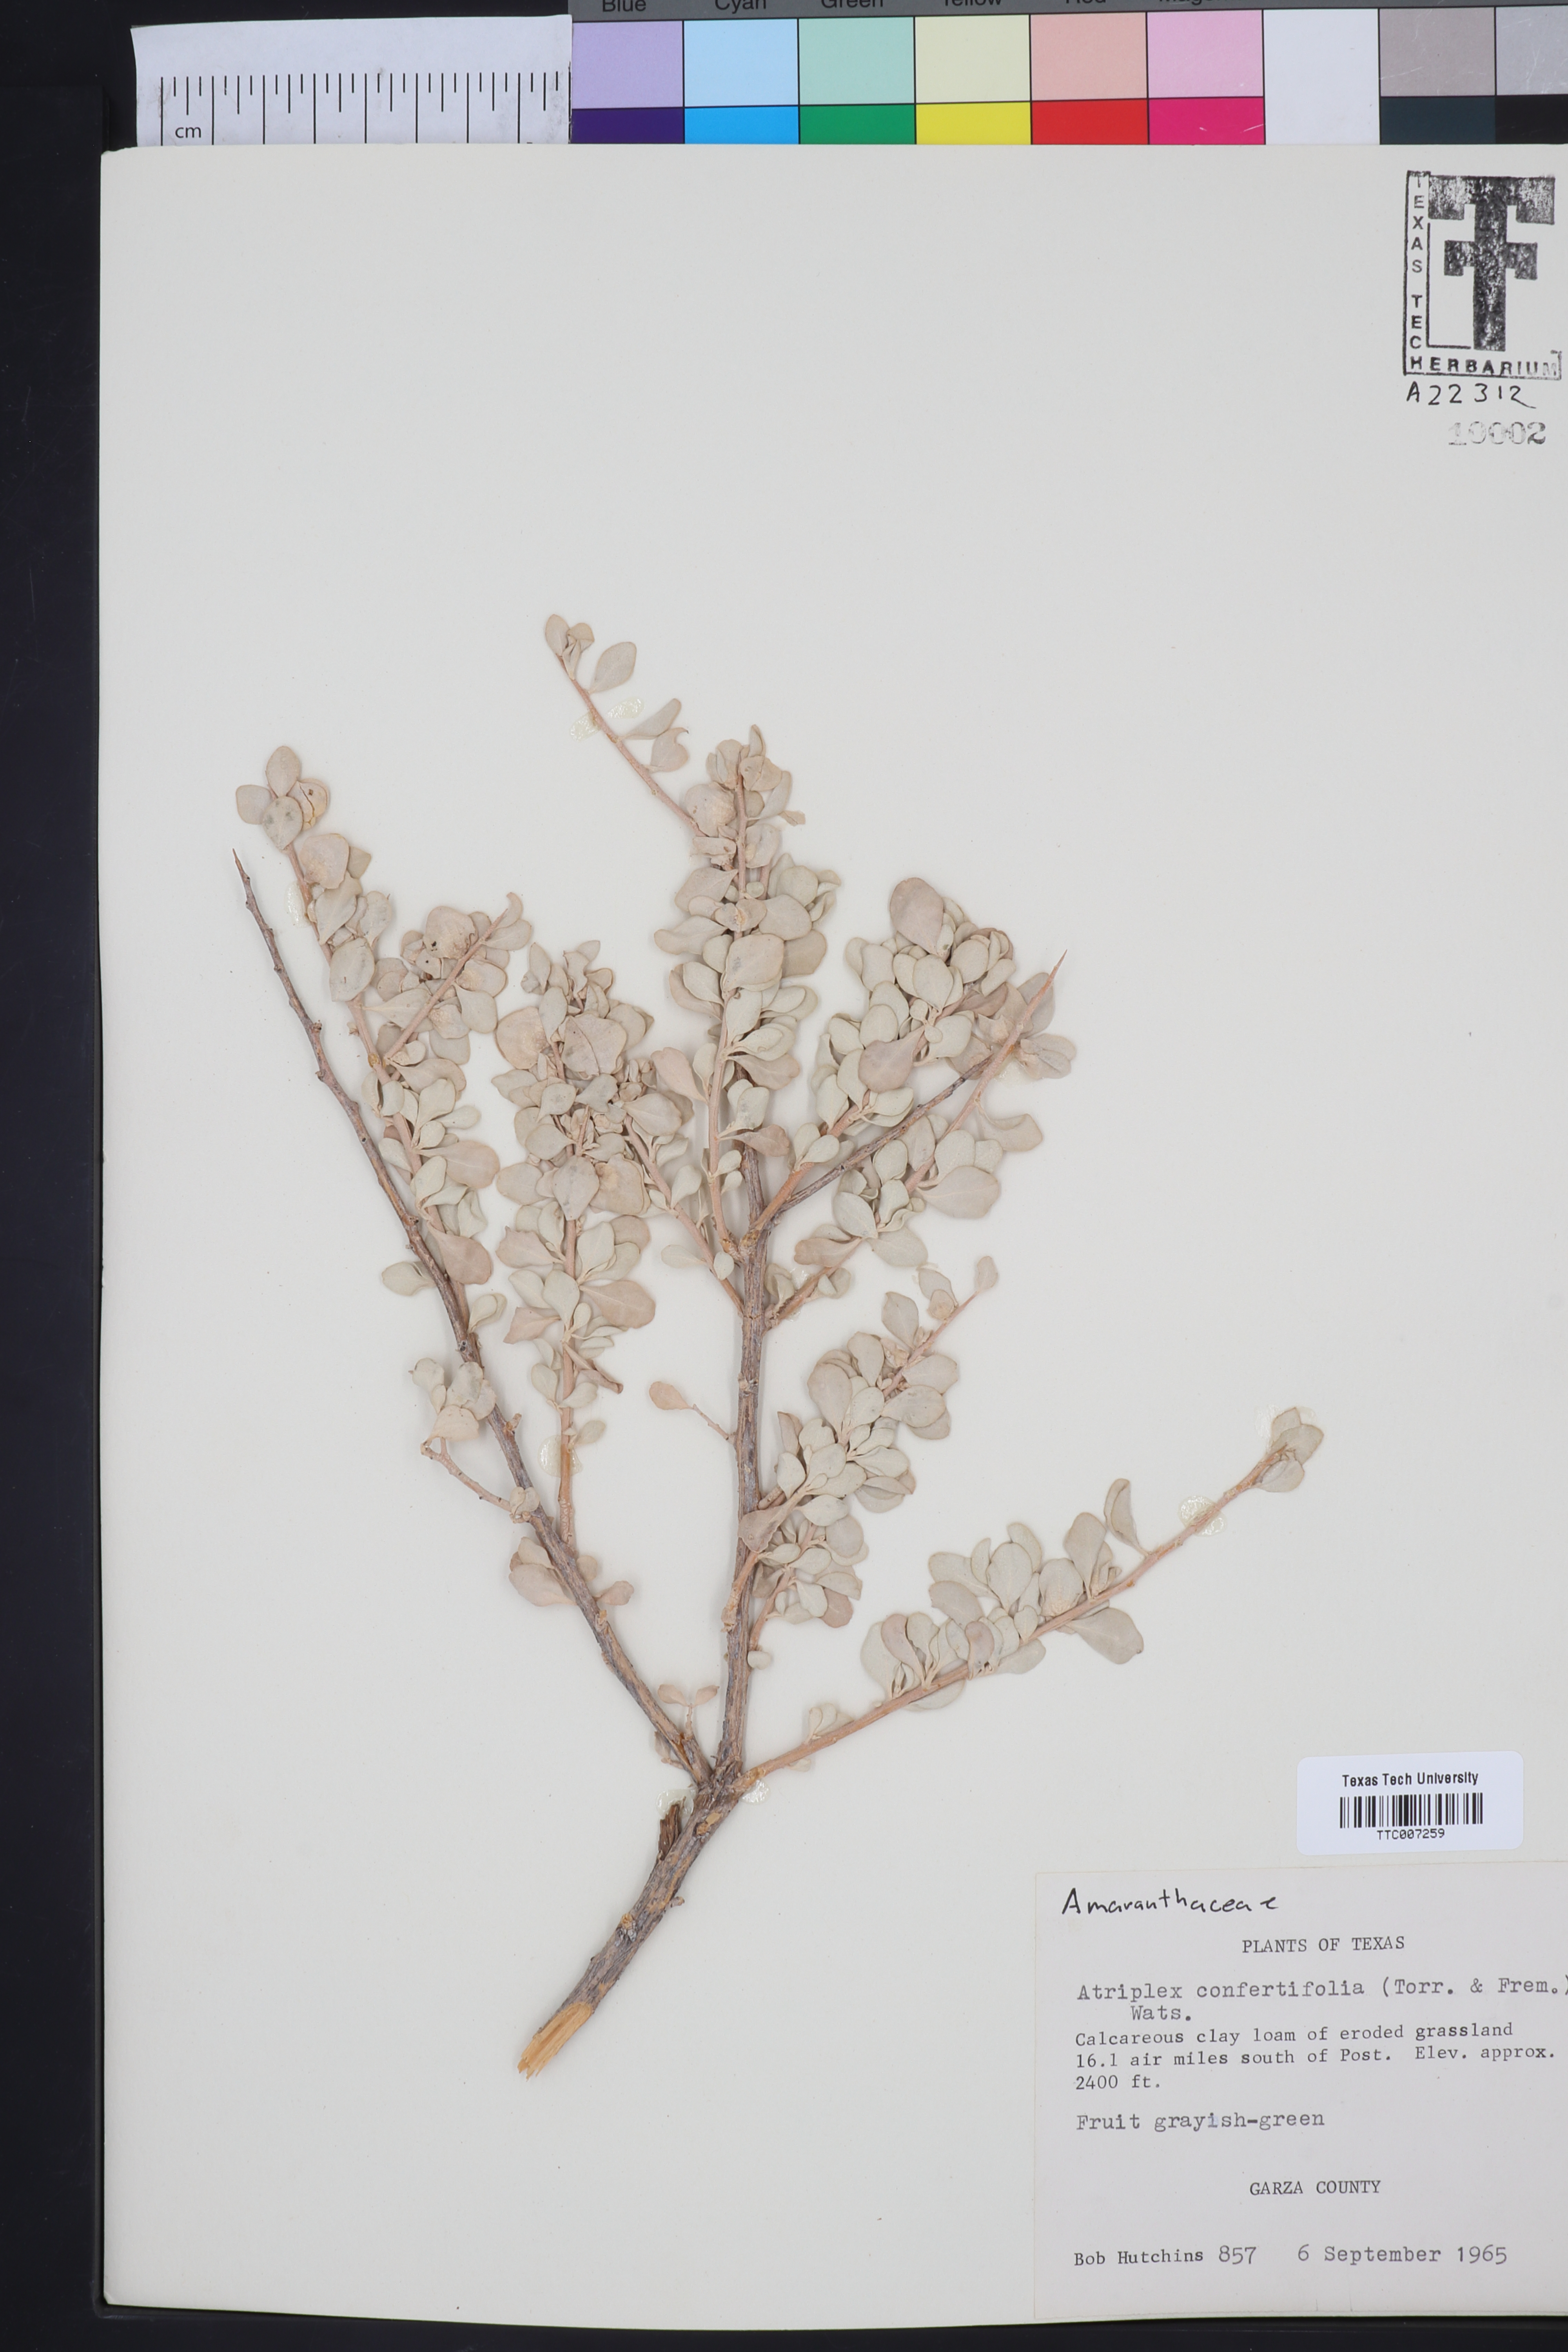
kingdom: Plantae
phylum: Tracheophyta
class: Magnoliopsida
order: Caryophyllales
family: Amaranthaceae
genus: Atriplex
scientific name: Atriplex confertifolia
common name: Shadscale
